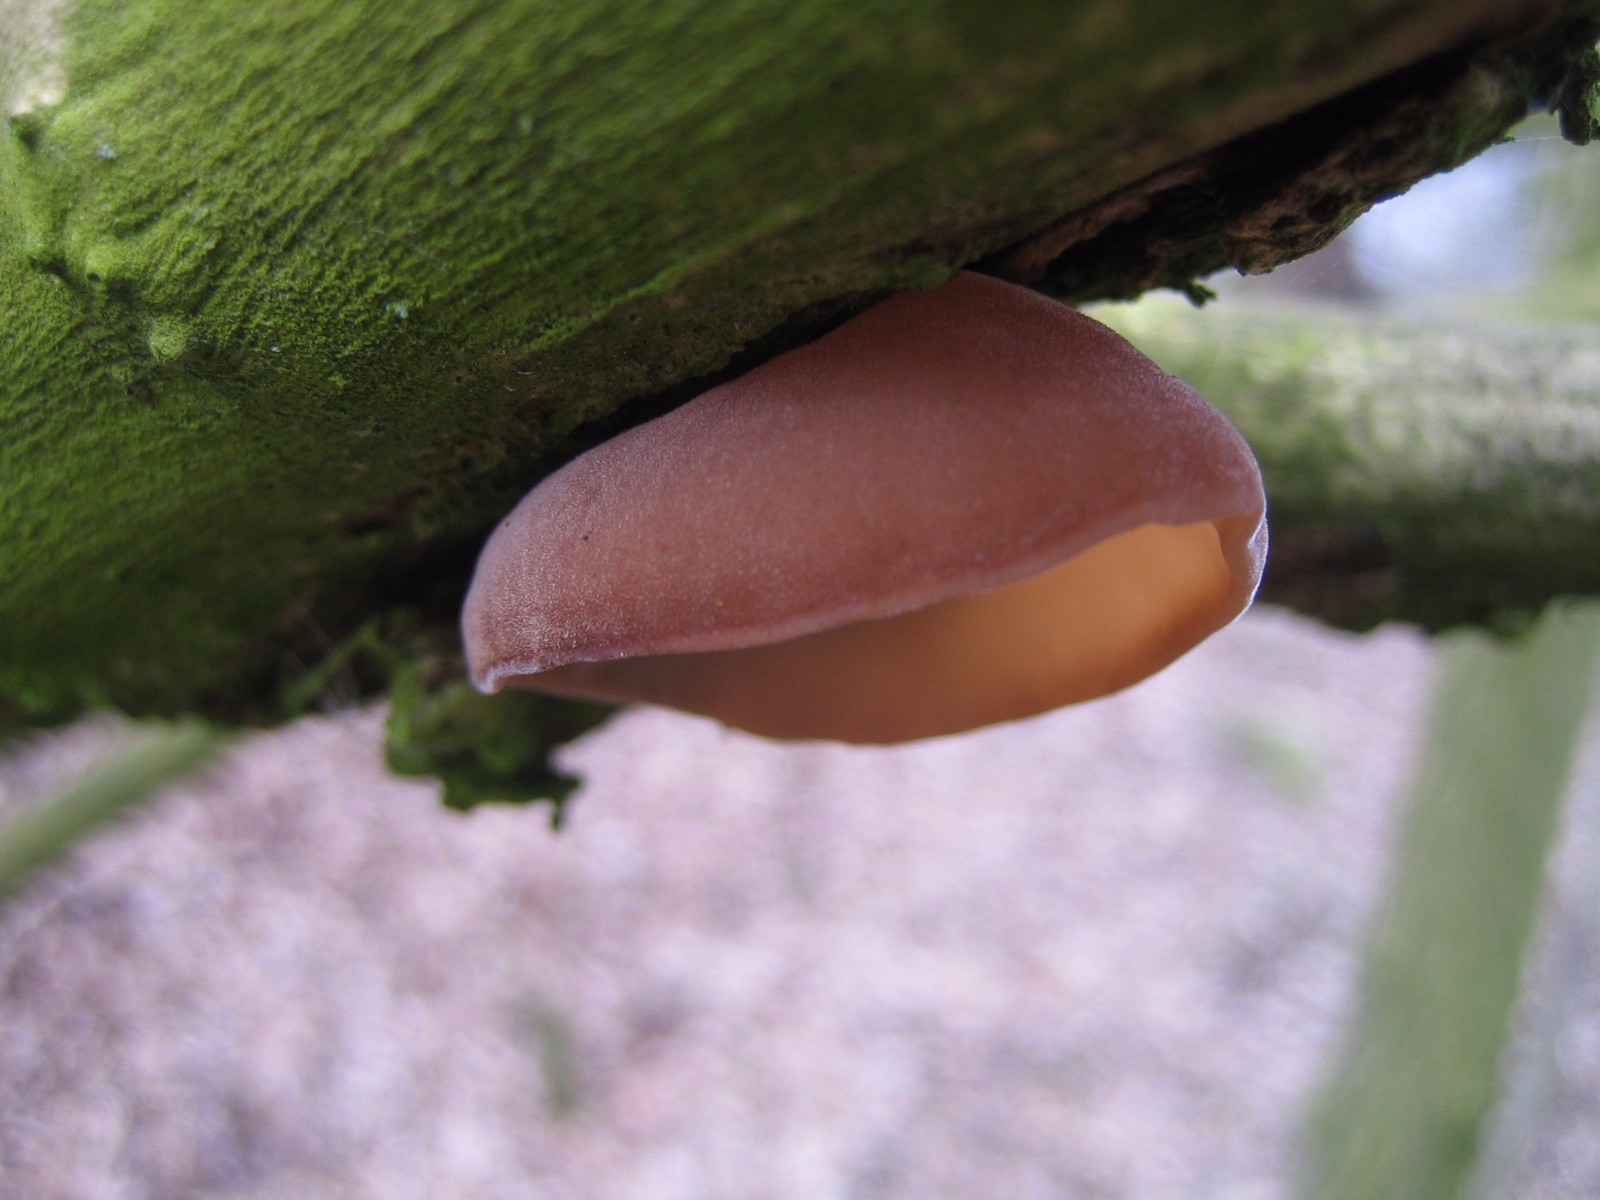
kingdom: Fungi
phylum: Basidiomycota
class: Agaricomycetes
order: Auriculariales
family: Auriculariaceae
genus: Auricularia
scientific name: Auricularia auricula-judae
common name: almindelig judasøre
